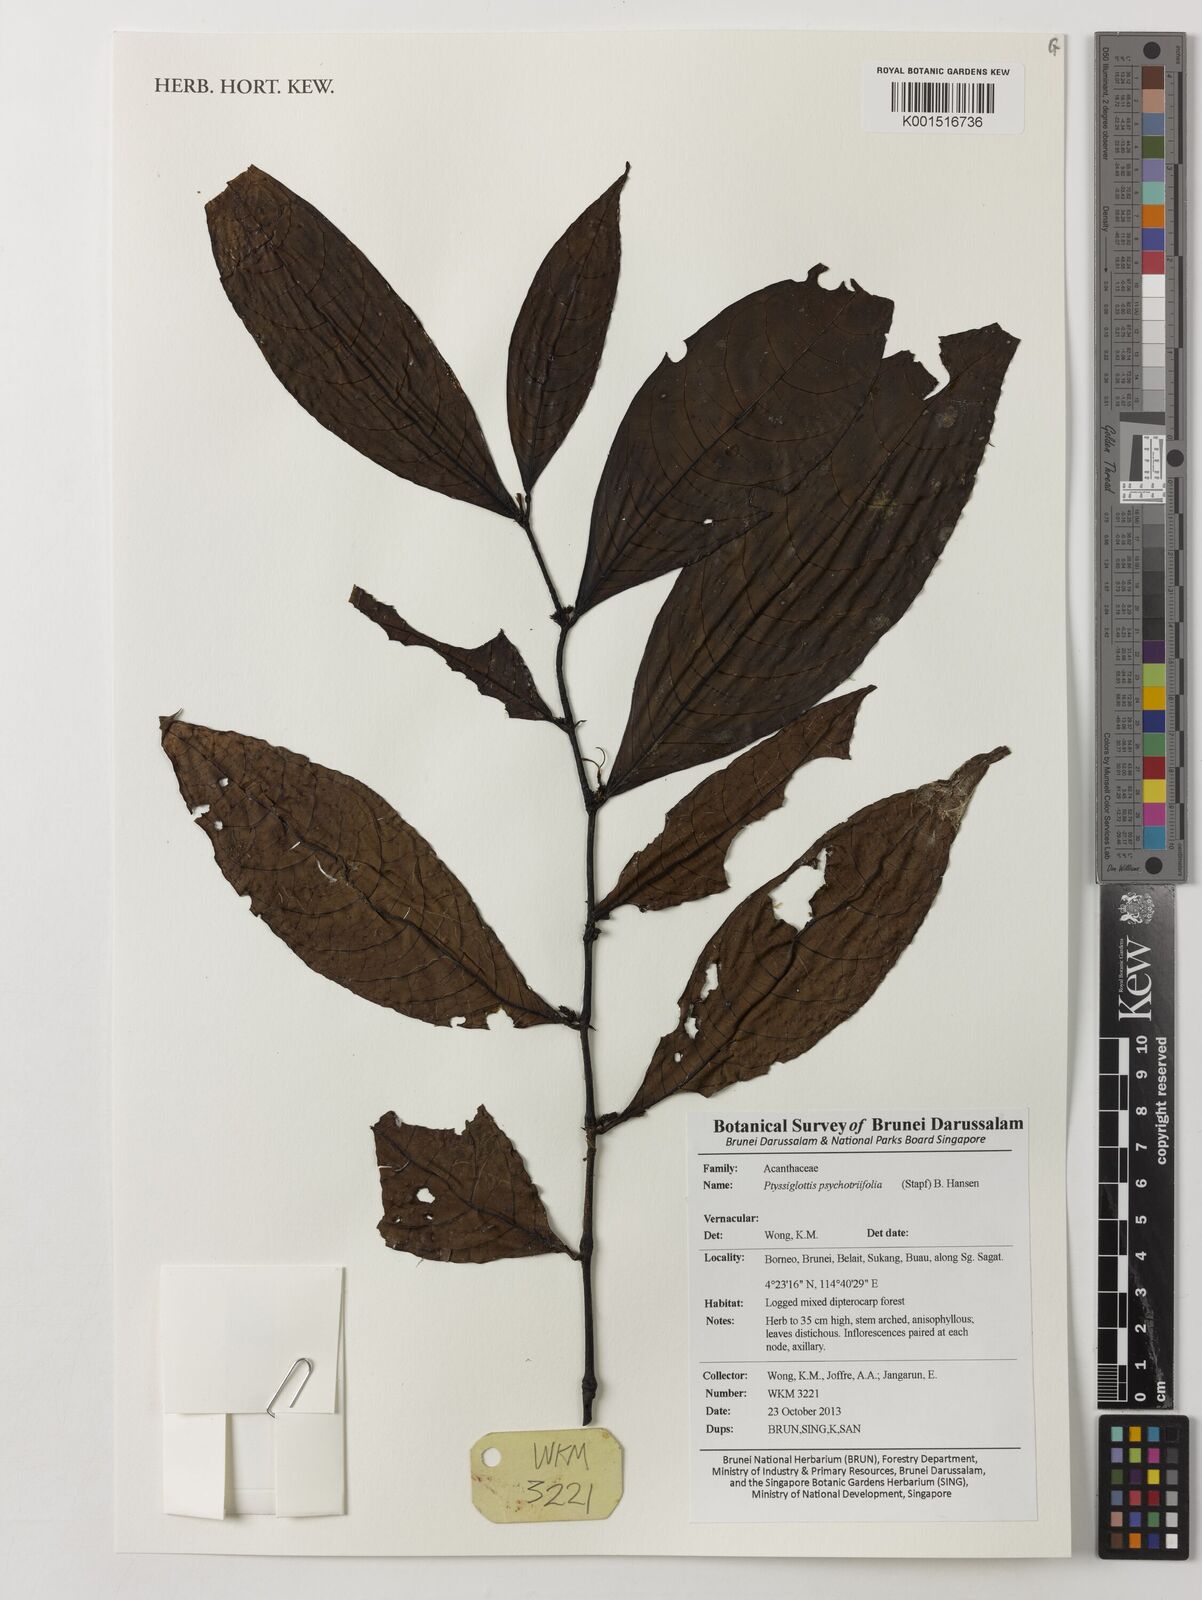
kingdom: Plantae
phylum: Tracheophyta
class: Magnoliopsida
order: Lamiales
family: Acanthaceae
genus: Ptyssiglottis
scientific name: Ptyssiglottis psychotriifolia
